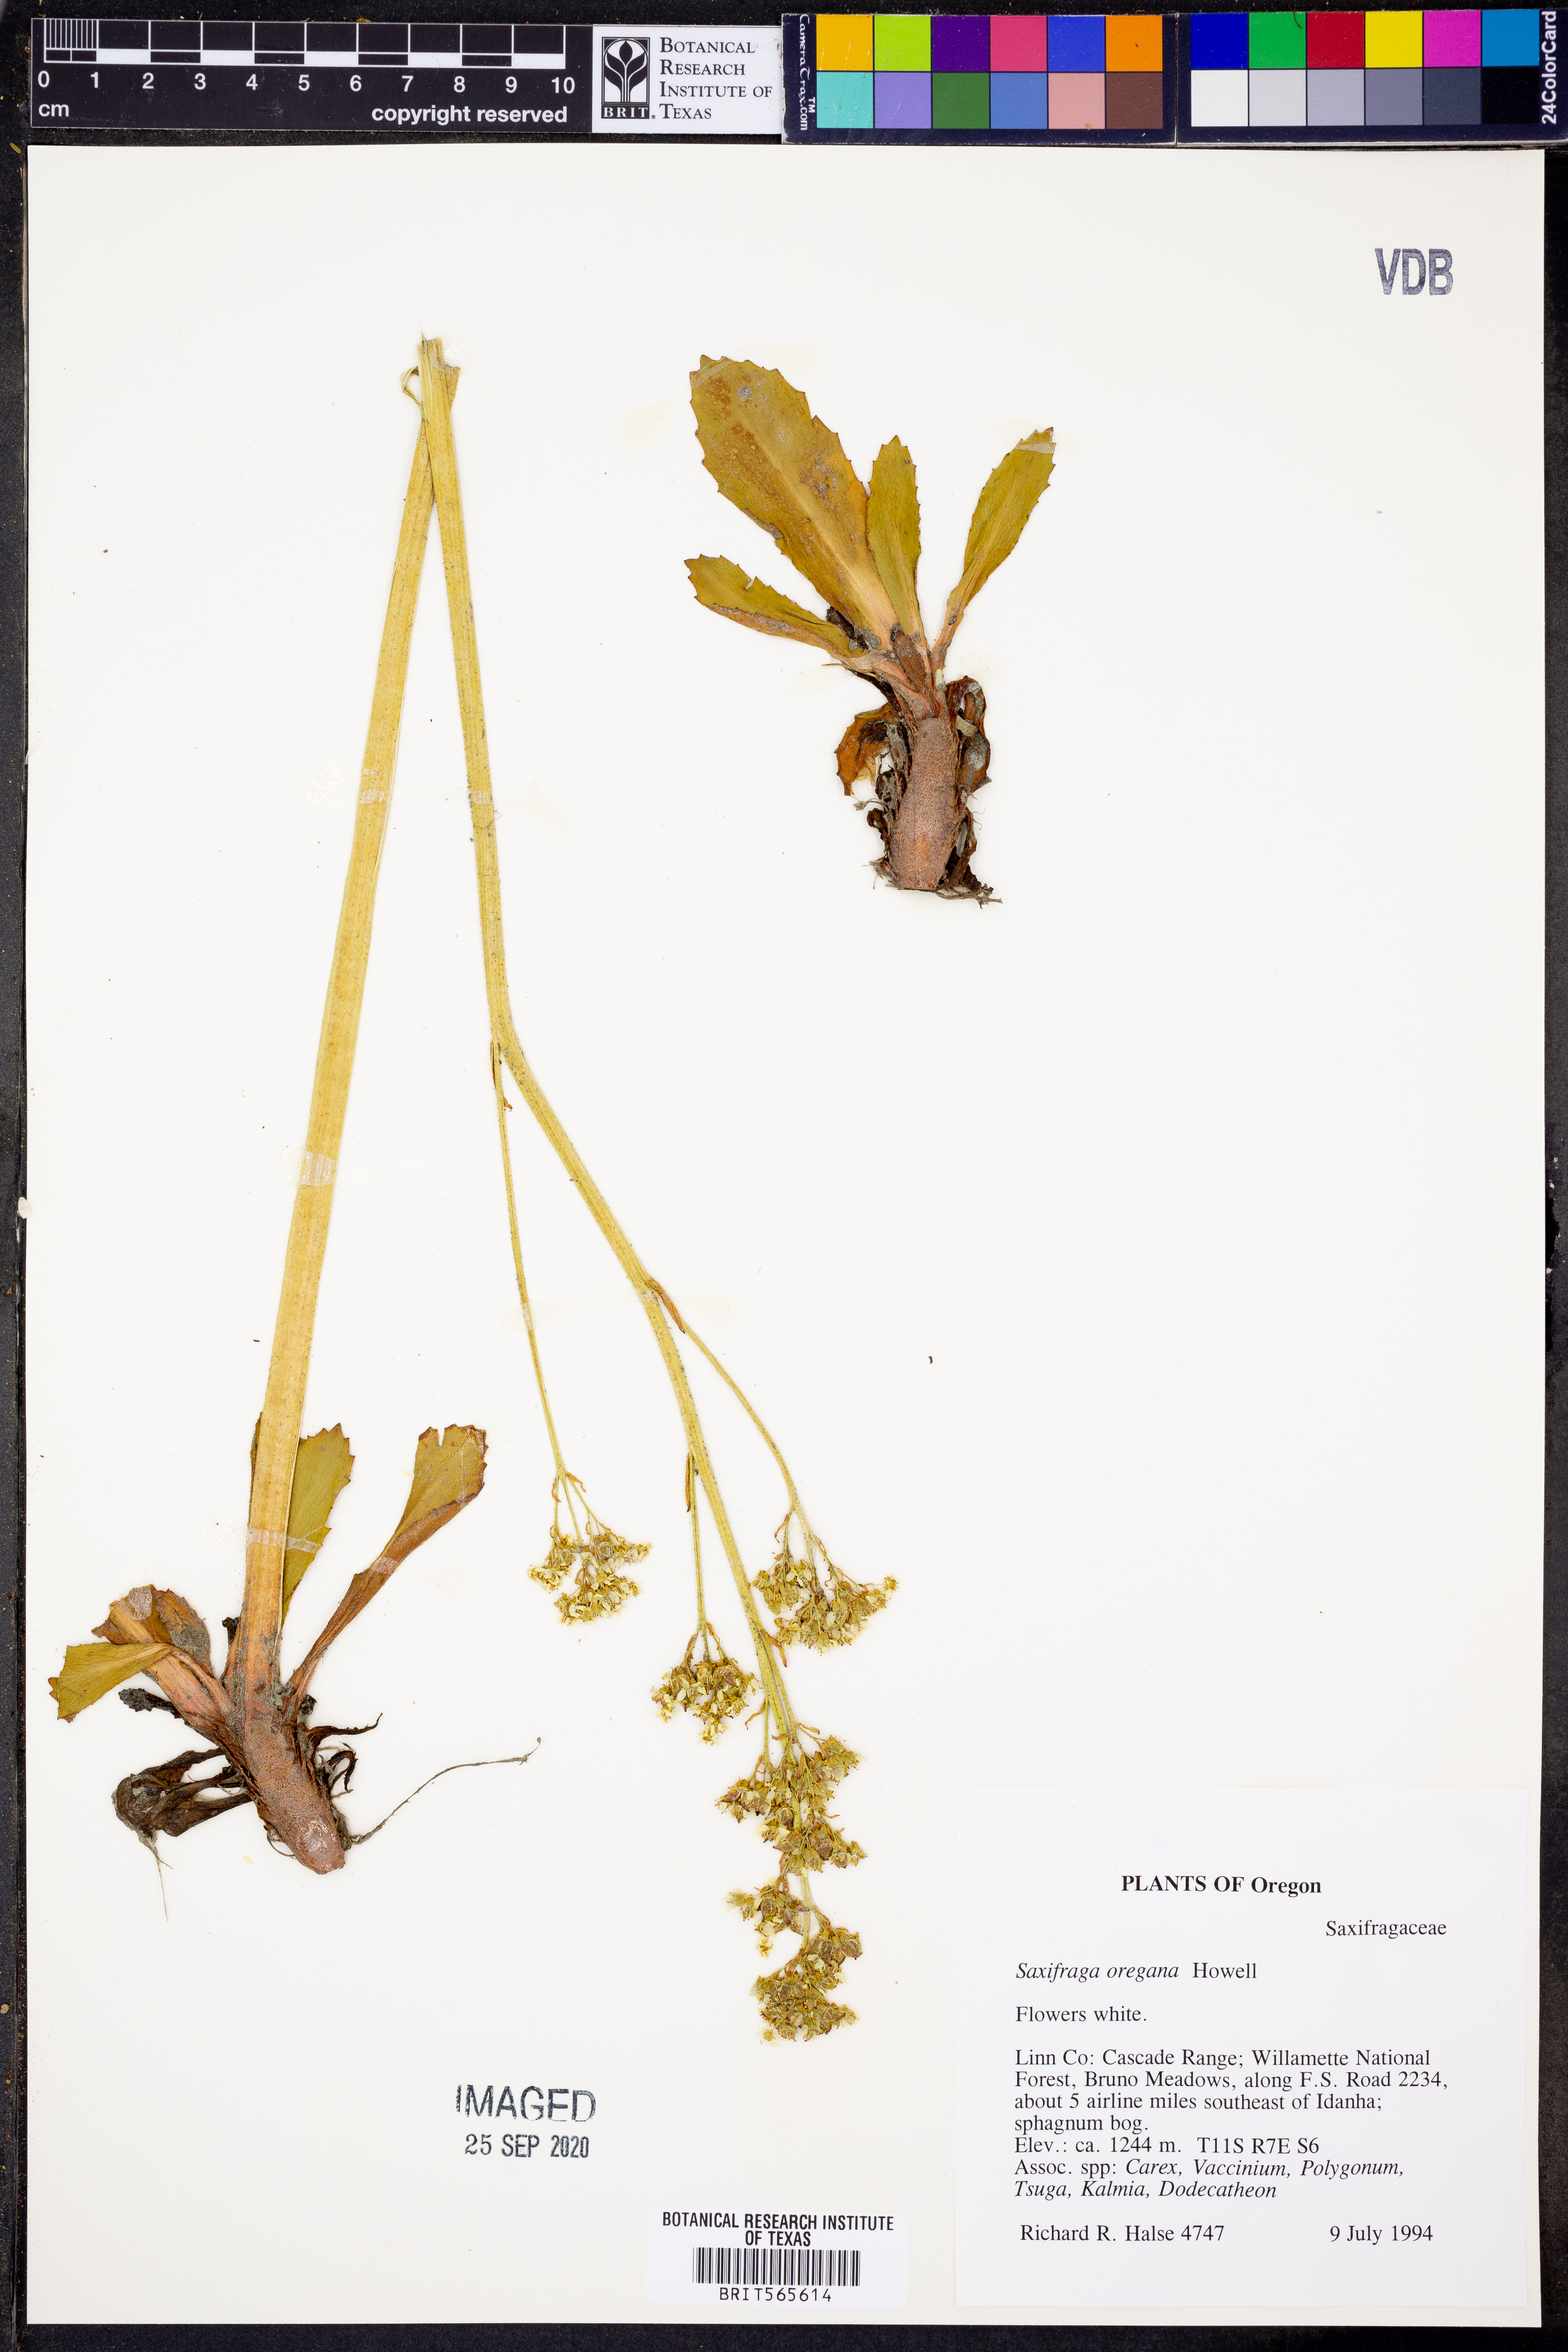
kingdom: Plantae
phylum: Tracheophyta
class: Magnoliopsida
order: Saxifragales
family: Saxifragaceae
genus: Micranthes
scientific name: Micranthes oregana
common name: Bog saxifrage
